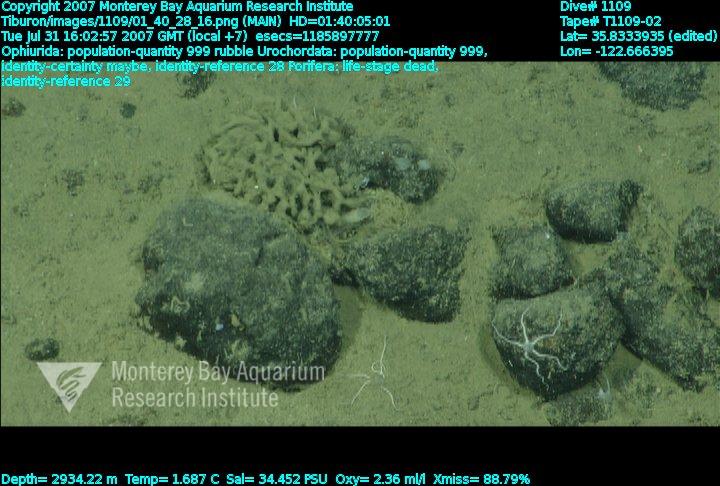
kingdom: Animalia
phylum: Porifera
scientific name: Porifera
